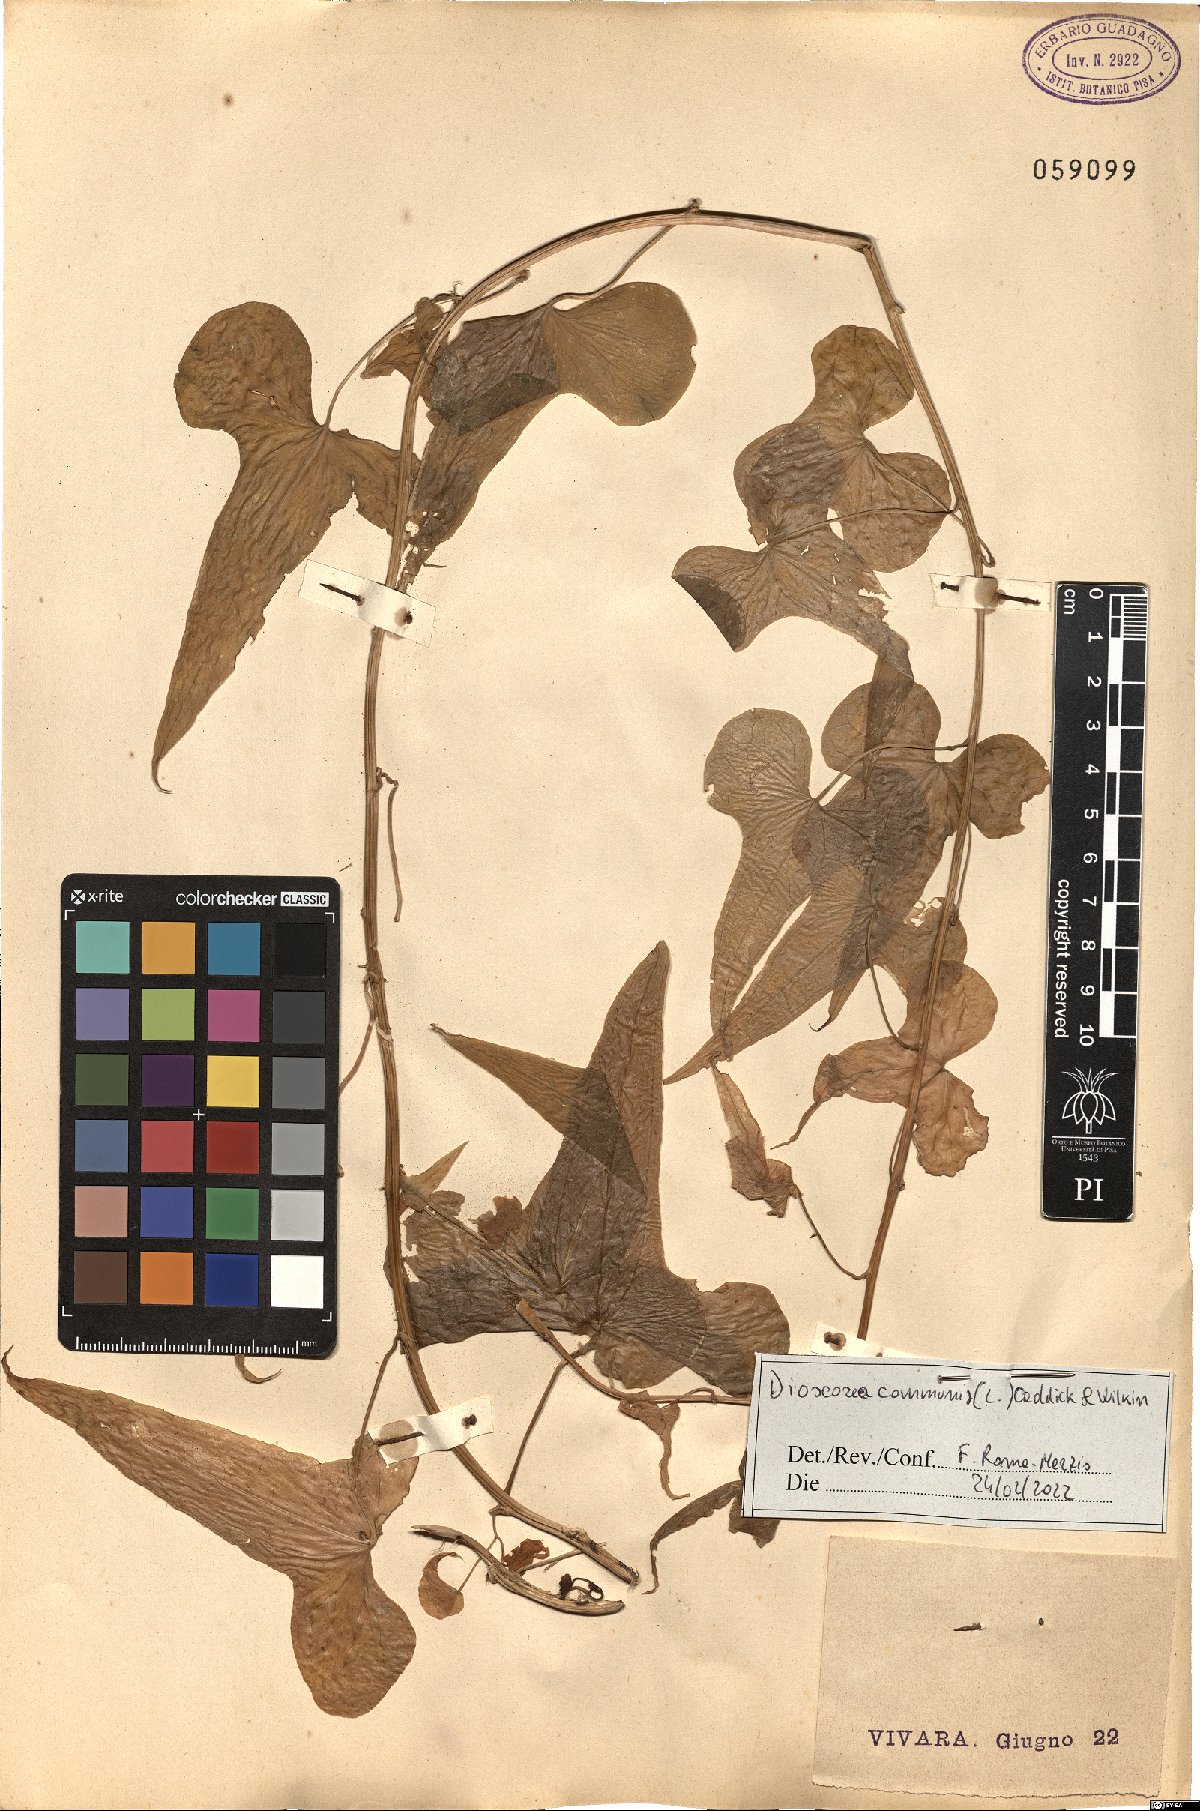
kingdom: Plantae
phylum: Tracheophyta
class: Liliopsida
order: Dioscoreales
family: Dioscoreaceae
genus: Dioscorea
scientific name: Dioscorea communis
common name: Black-bindweed
